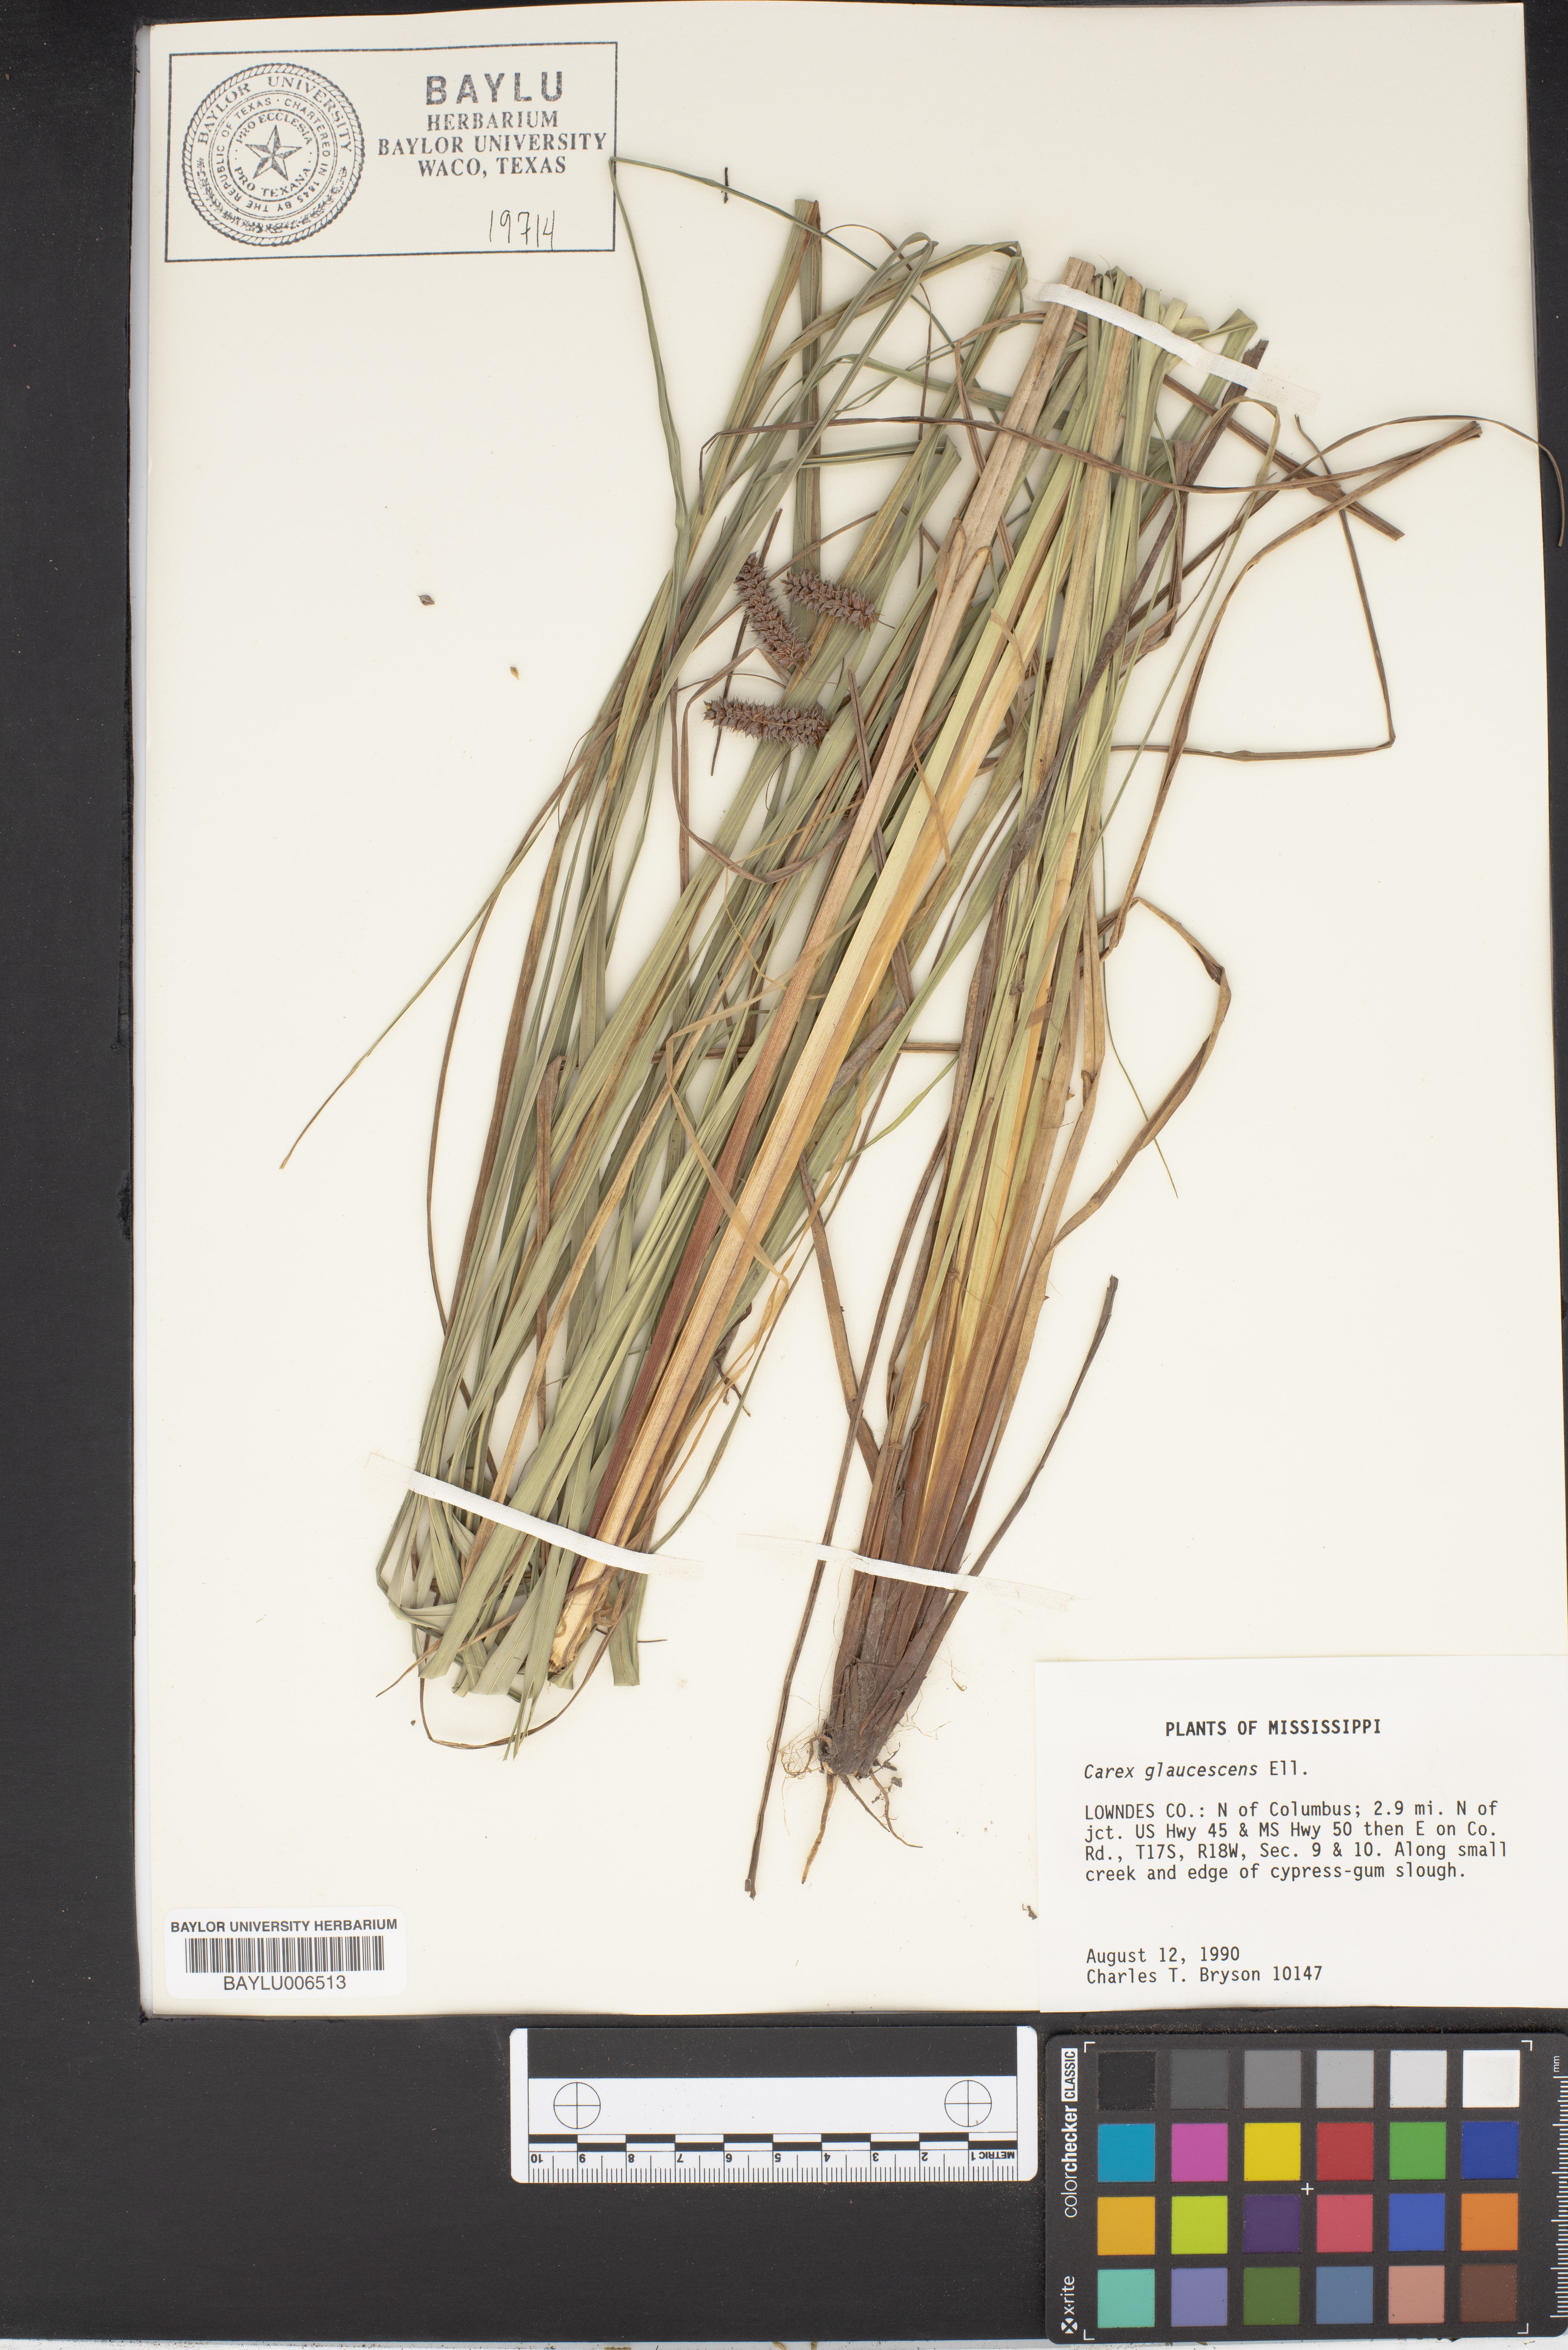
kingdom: Plantae
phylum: Tracheophyta
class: Liliopsida
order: Poales
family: Cyperaceae
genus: Carex
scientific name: Carex glaucescens
